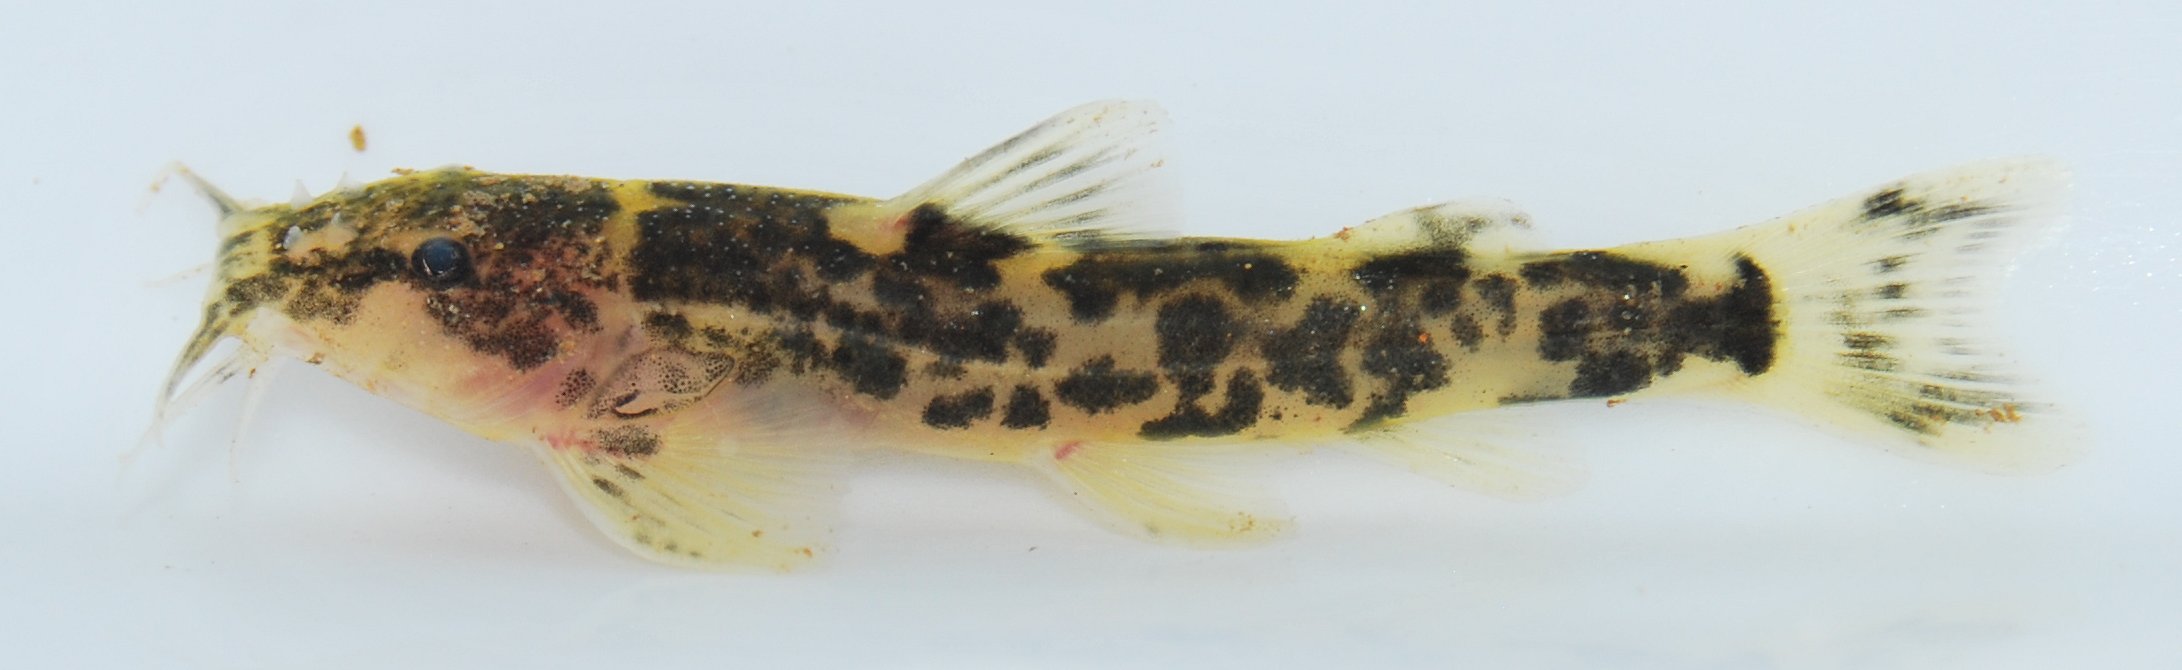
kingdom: Animalia
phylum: Chordata
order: Siluriformes
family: Amphiliidae
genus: Amphilius
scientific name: Amphilius
